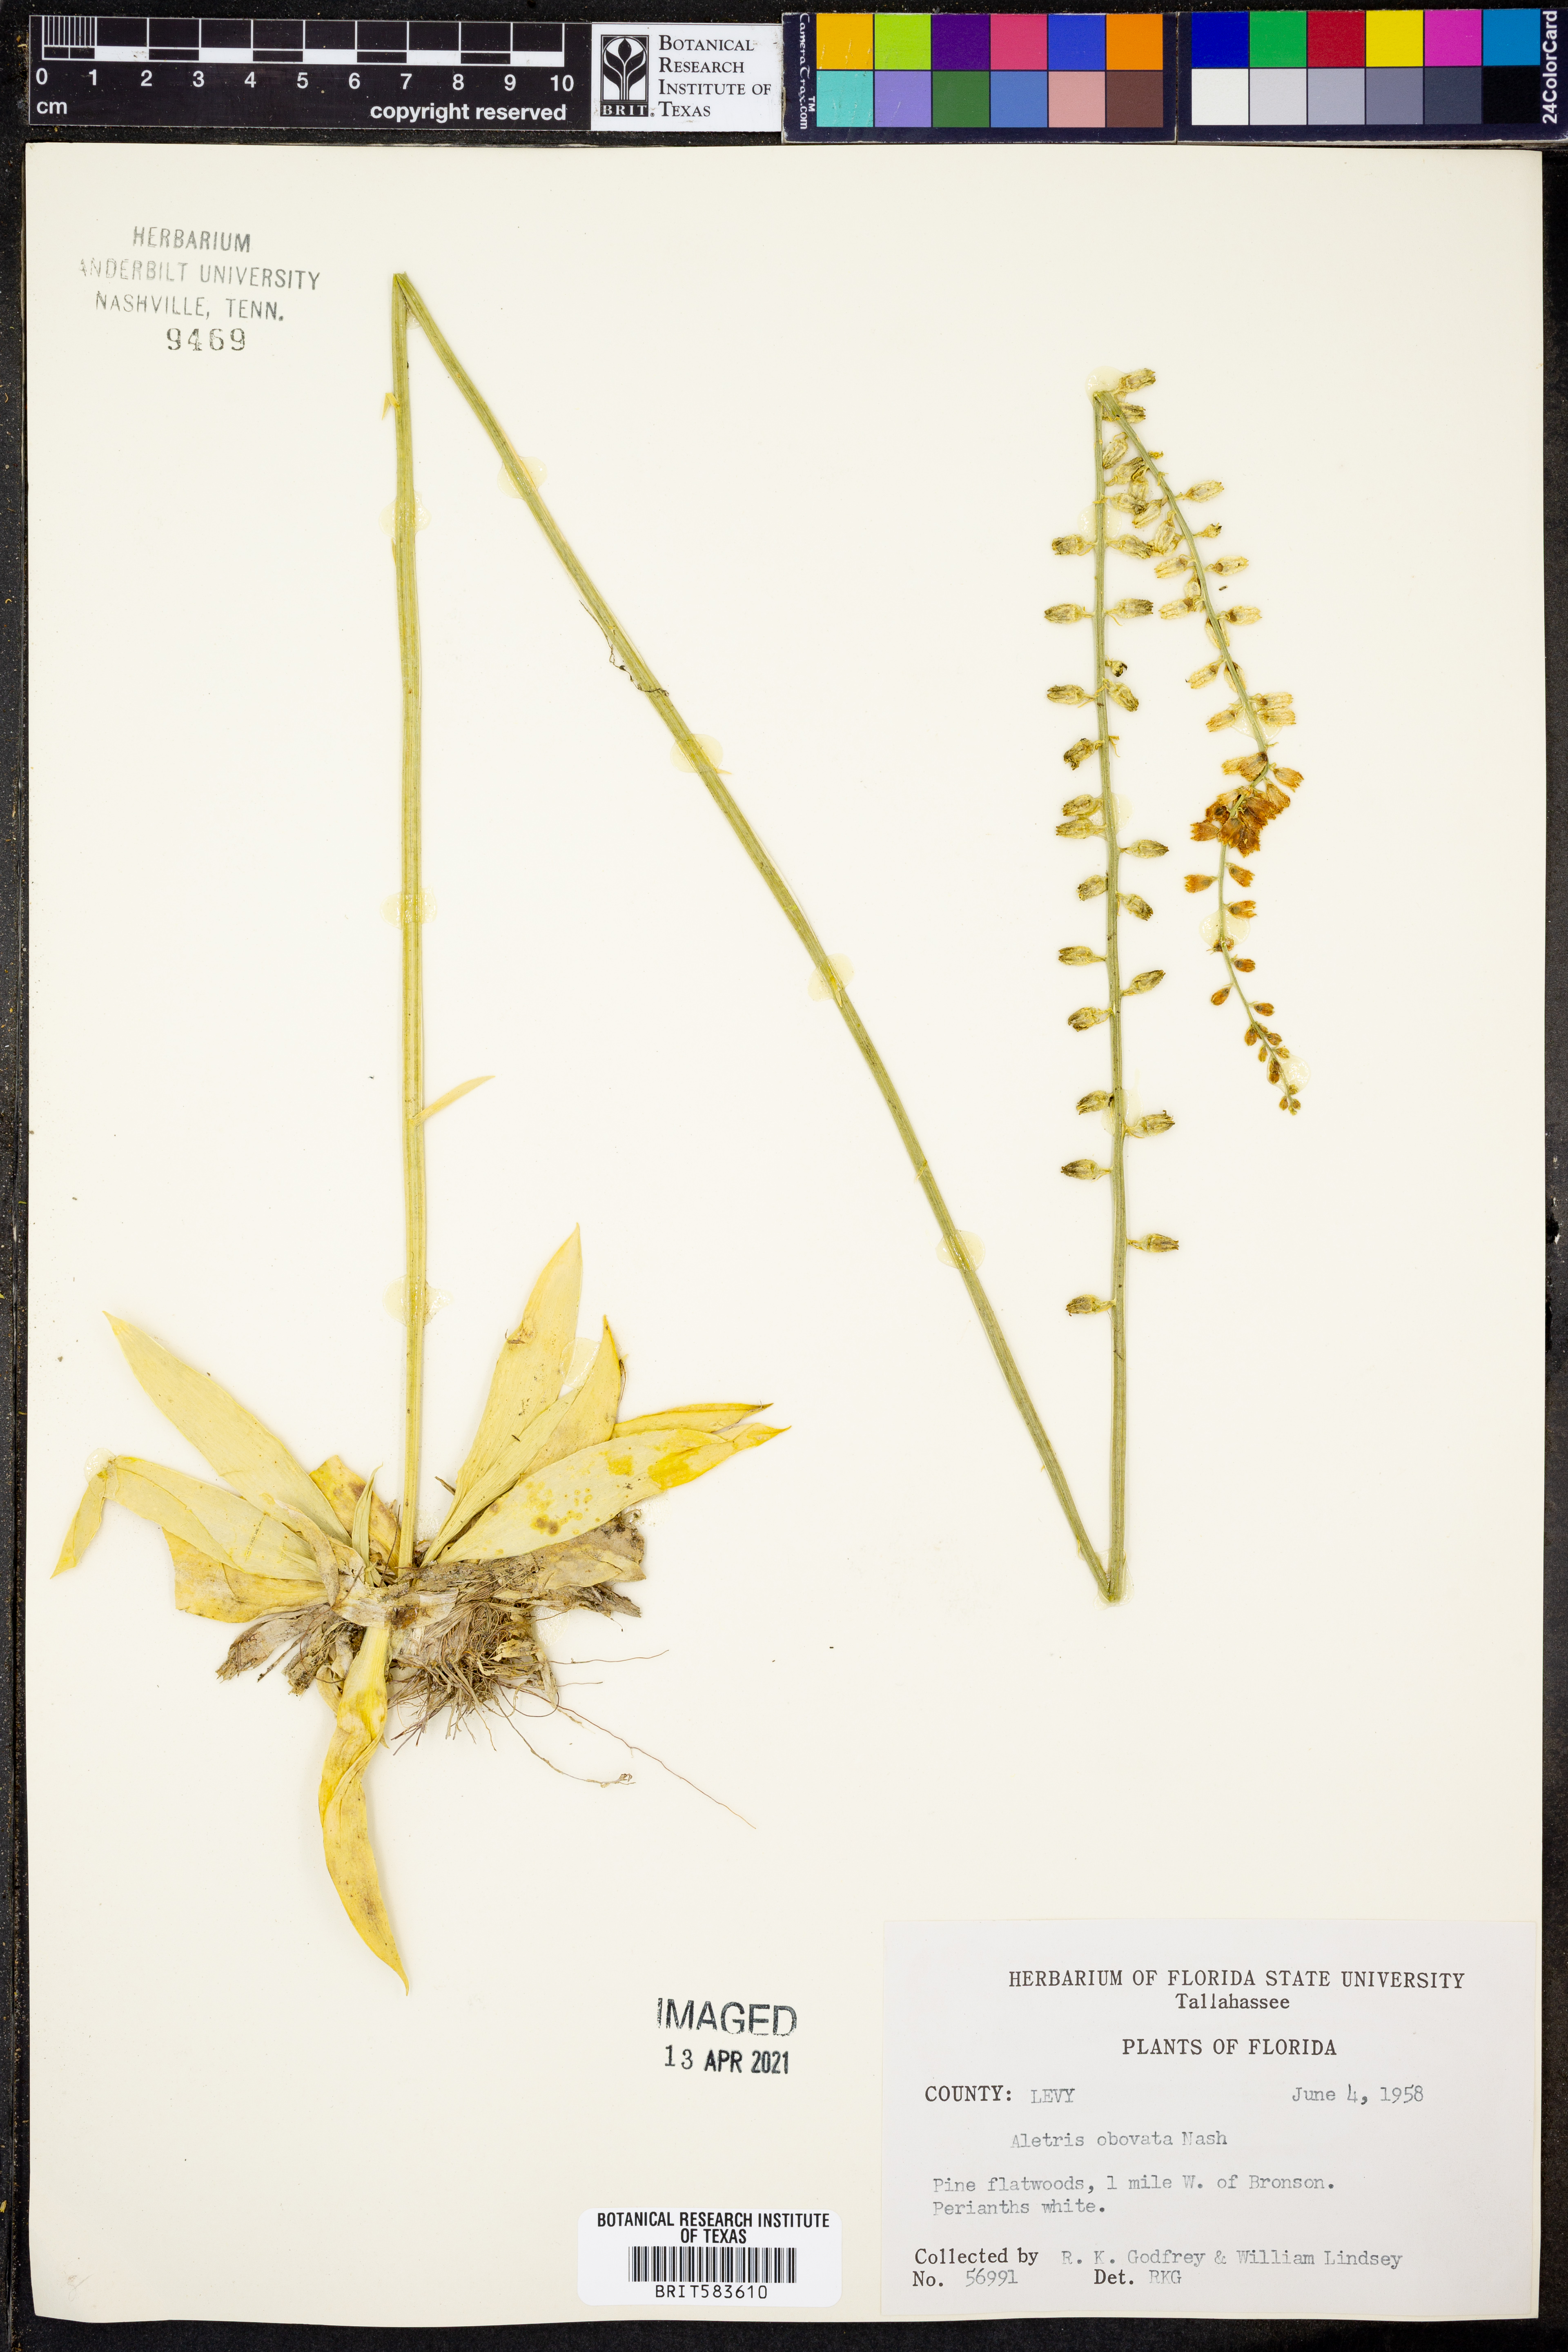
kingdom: Plantae
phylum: Tracheophyta
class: Liliopsida
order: Dioscoreales
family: Nartheciaceae
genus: Aletris
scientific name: Aletris obovata
